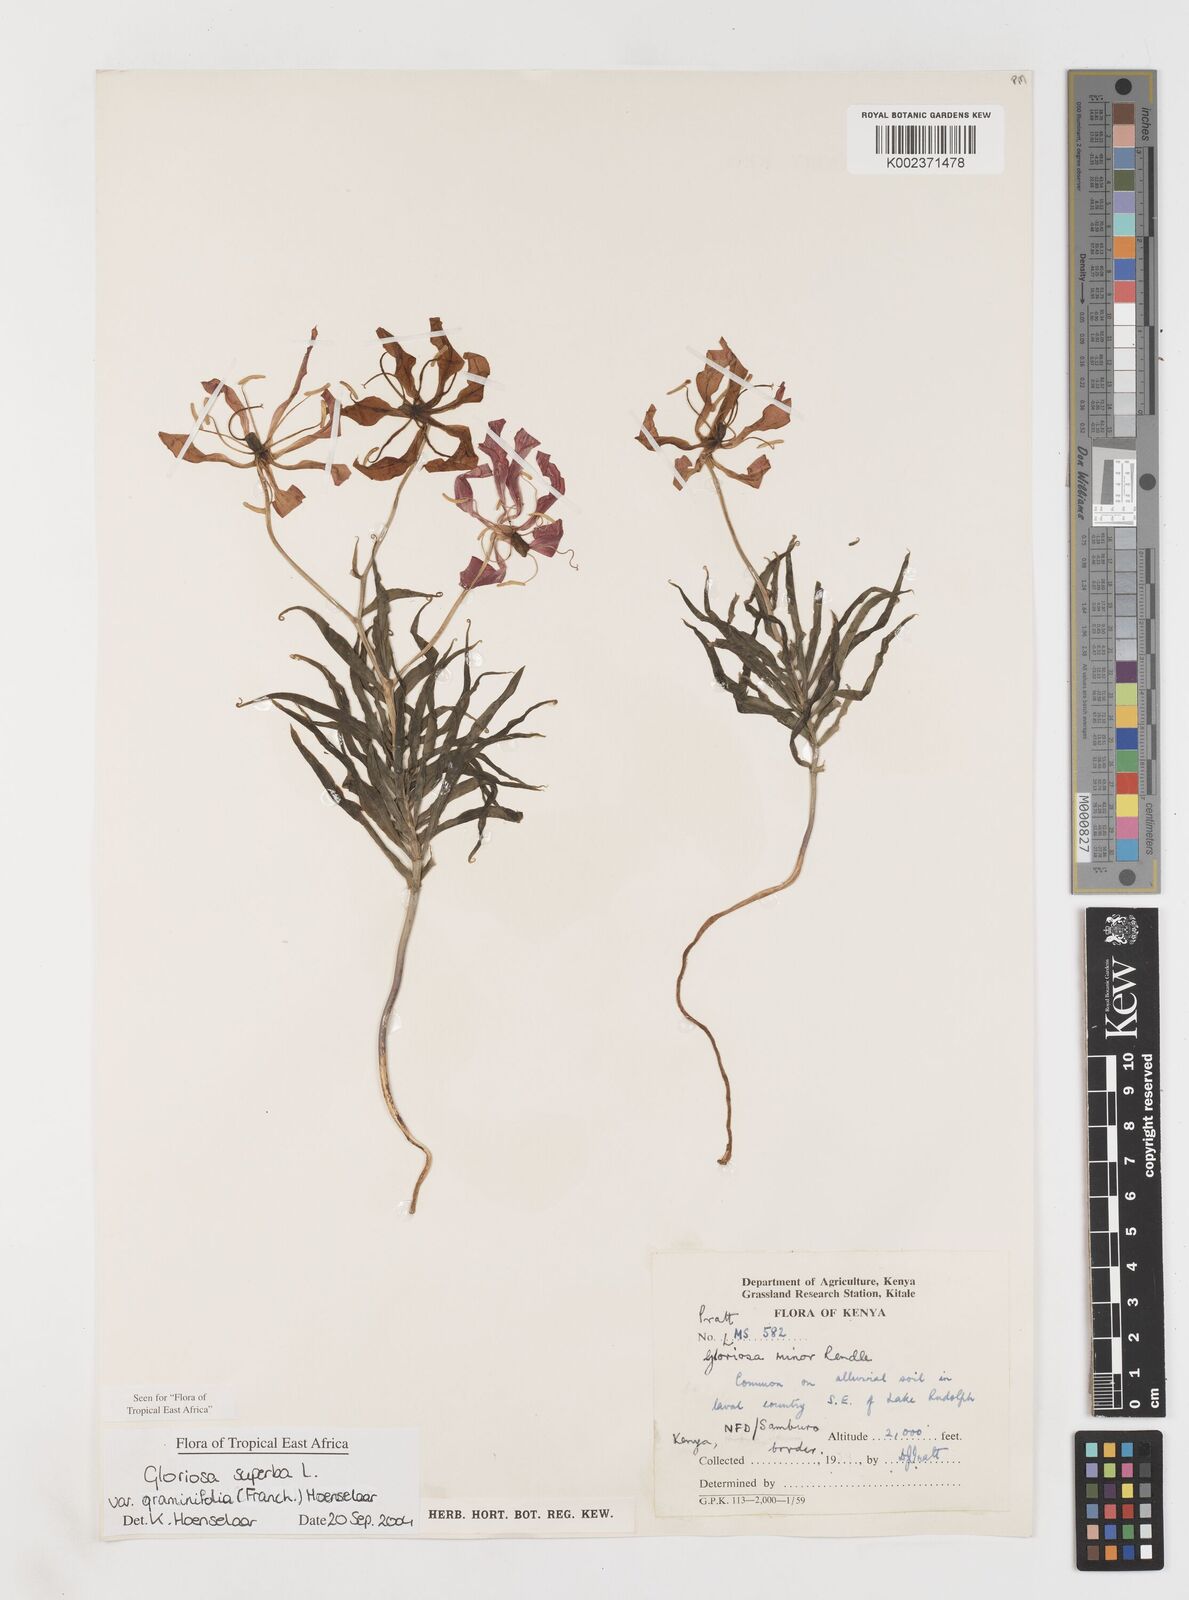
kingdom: Plantae
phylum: Tracheophyta
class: Liliopsida
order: Liliales
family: Colchicaceae
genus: Gloriosa
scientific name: Gloriosa baudii
